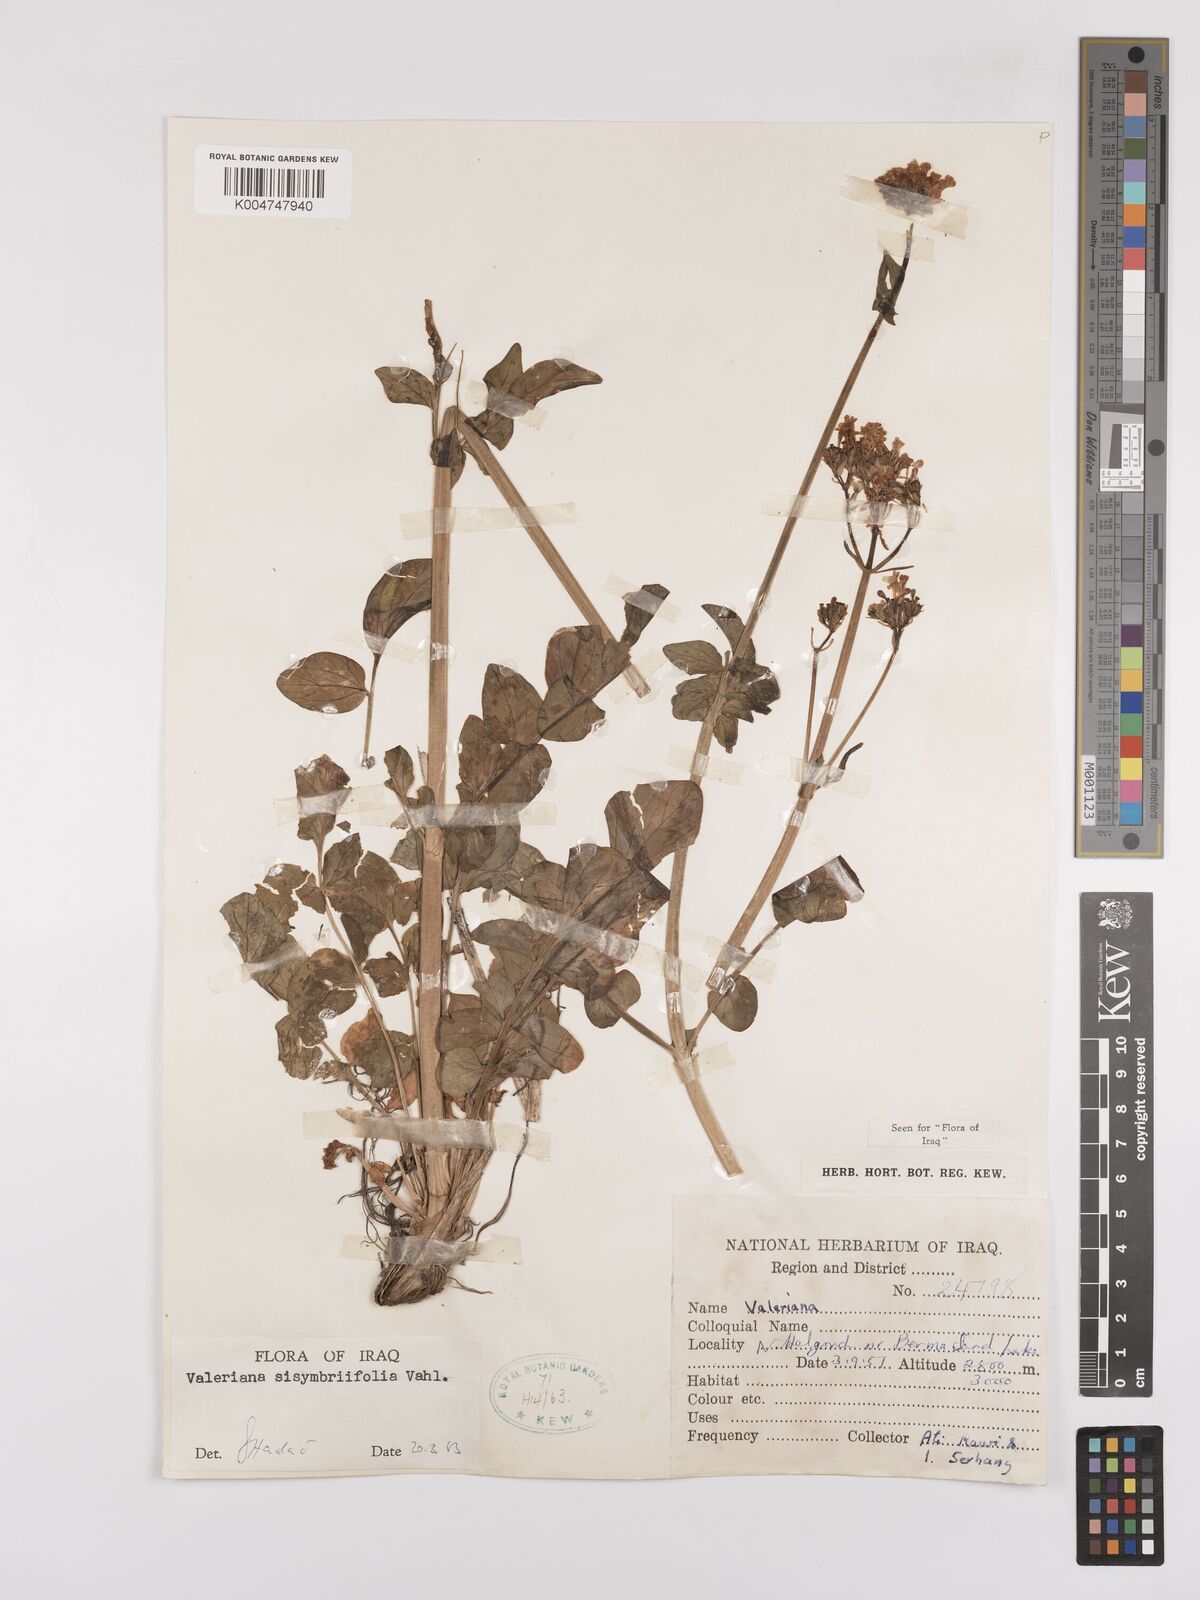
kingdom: Plantae
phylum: Tracheophyta
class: Magnoliopsida
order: Dipsacales
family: Caprifoliaceae
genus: Valeriana
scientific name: Valeriana
